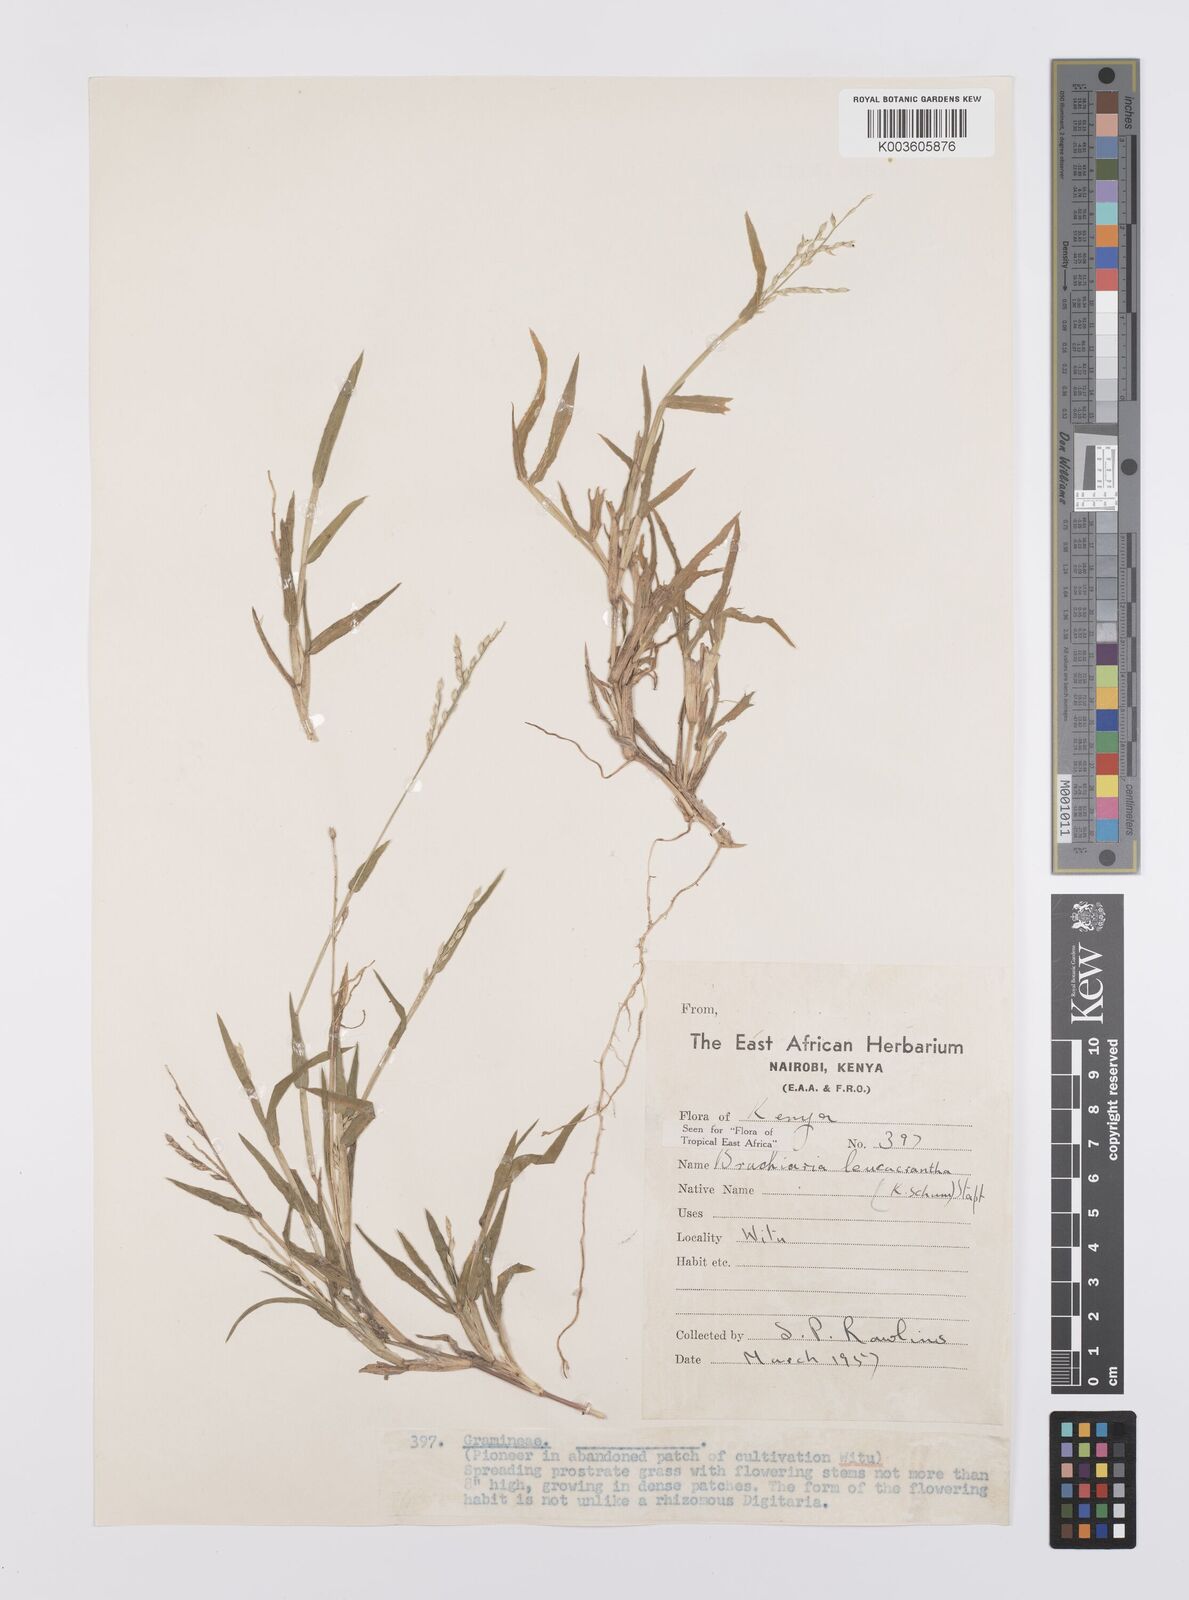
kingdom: Plantae
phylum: Tracheophyta
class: Liliopsida
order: Poales
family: Poaceae
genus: Urochloa
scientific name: Urochloa xantholeuca
